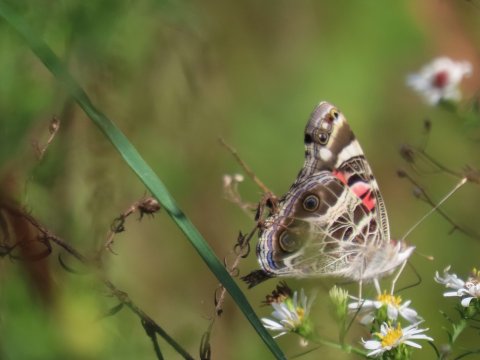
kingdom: Animalia
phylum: Arthropoda
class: Insecta
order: Lepidoptera
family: Nymphalidae
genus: Vanessa
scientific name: Vanessa virginiensis
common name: American Lady
